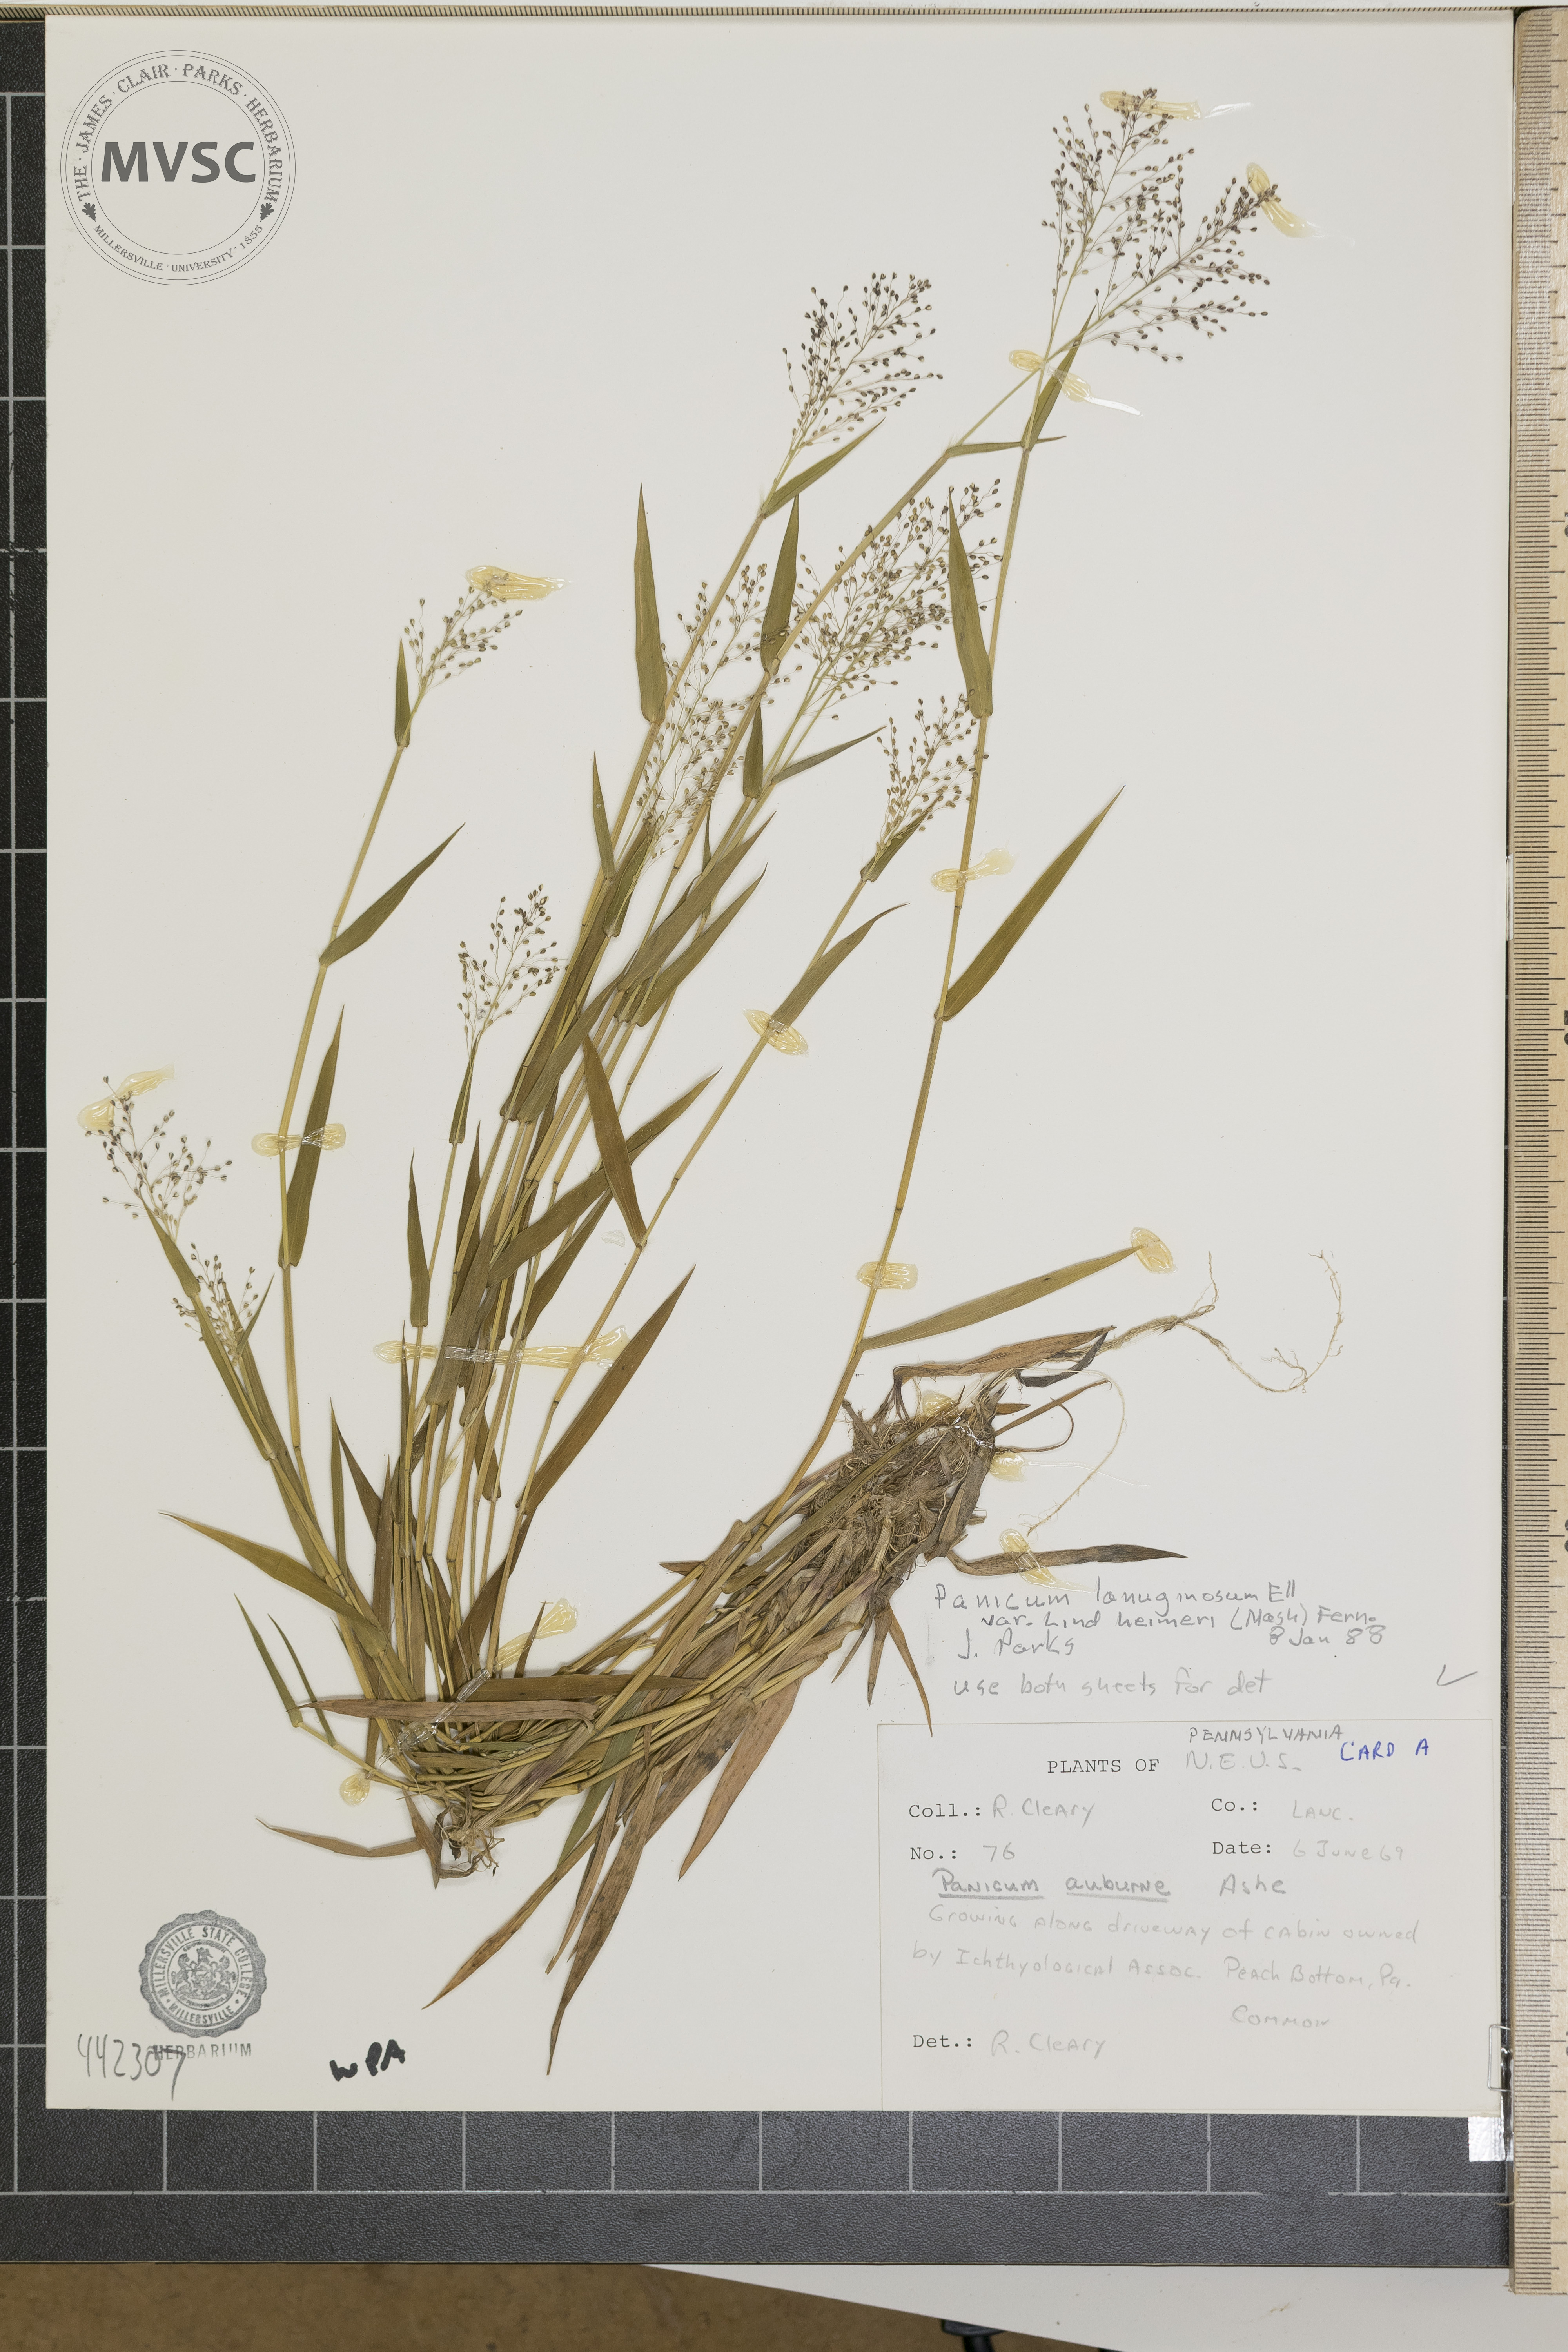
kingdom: Plantae
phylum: Tracheophyta
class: Liliopsida
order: Poales
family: Poaceae
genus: Dichanthelium
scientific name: Dichanthelium
